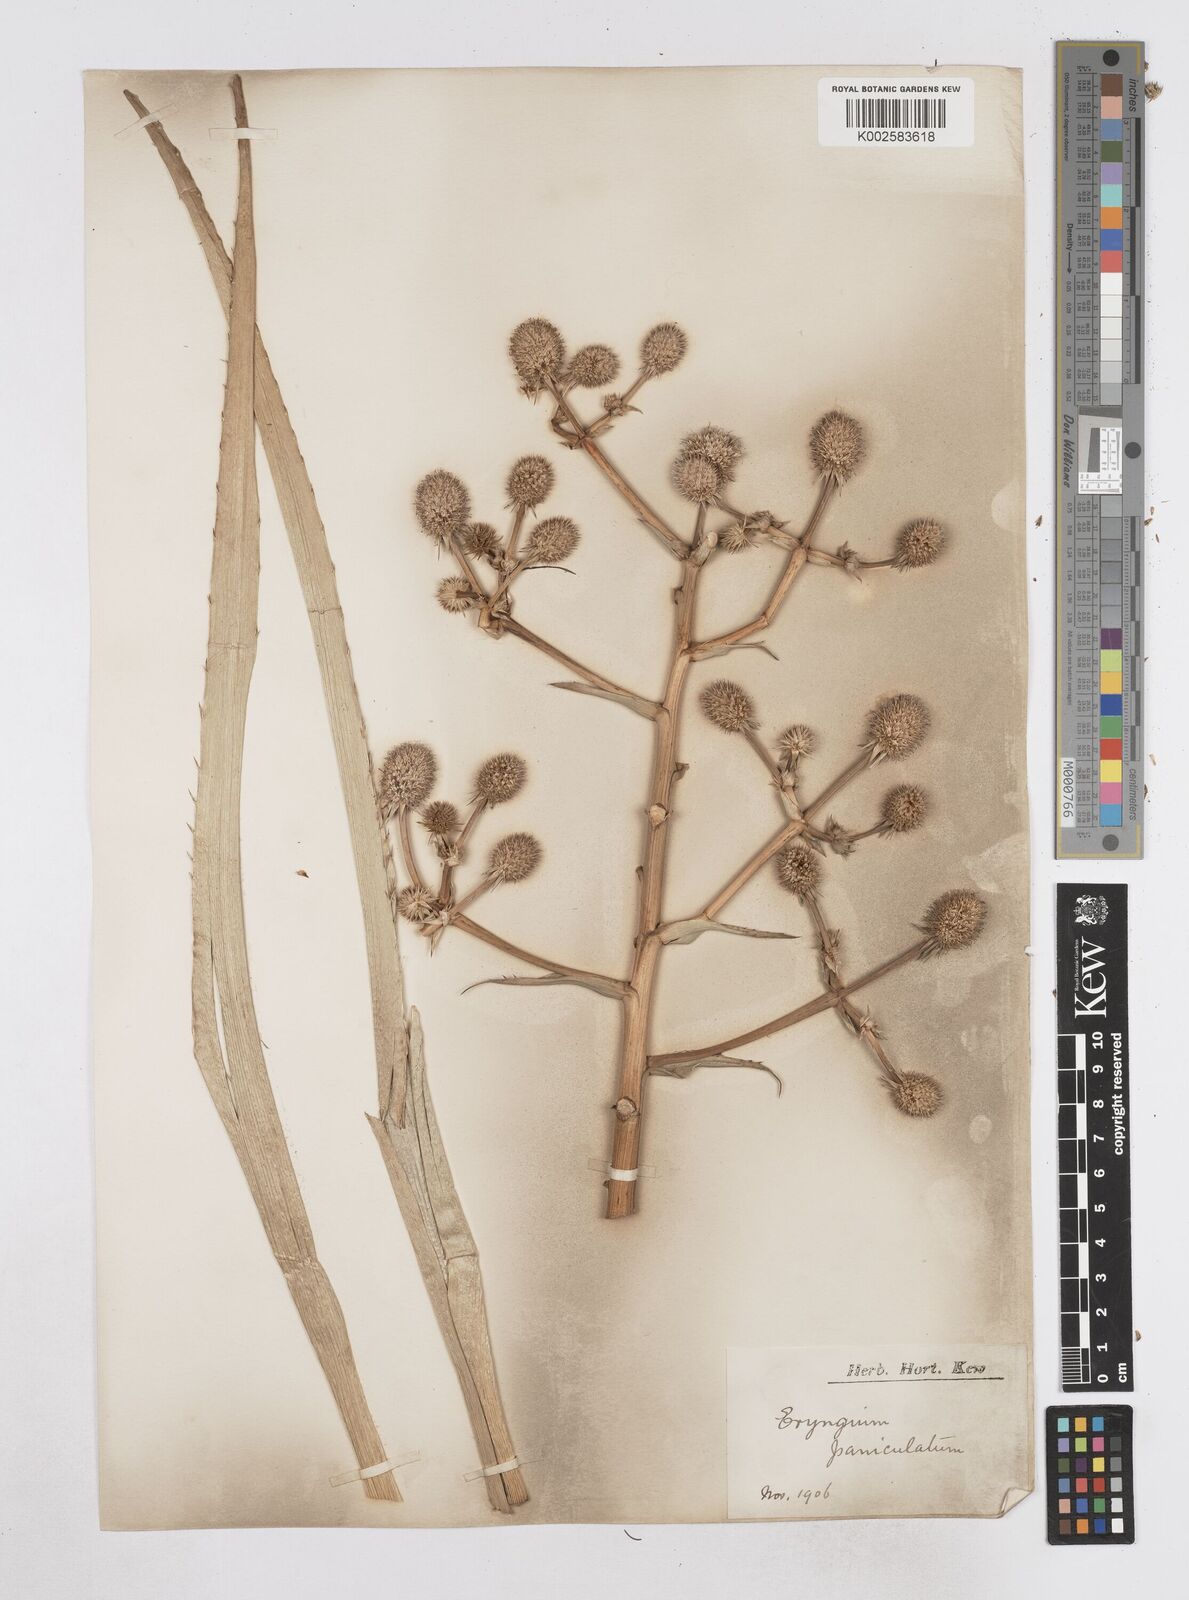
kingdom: Plantae
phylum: Tracheophyta
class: Magnoliopsida
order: Apiales
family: Apiaceae
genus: Eryngium
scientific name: Eryngium humboldtii
